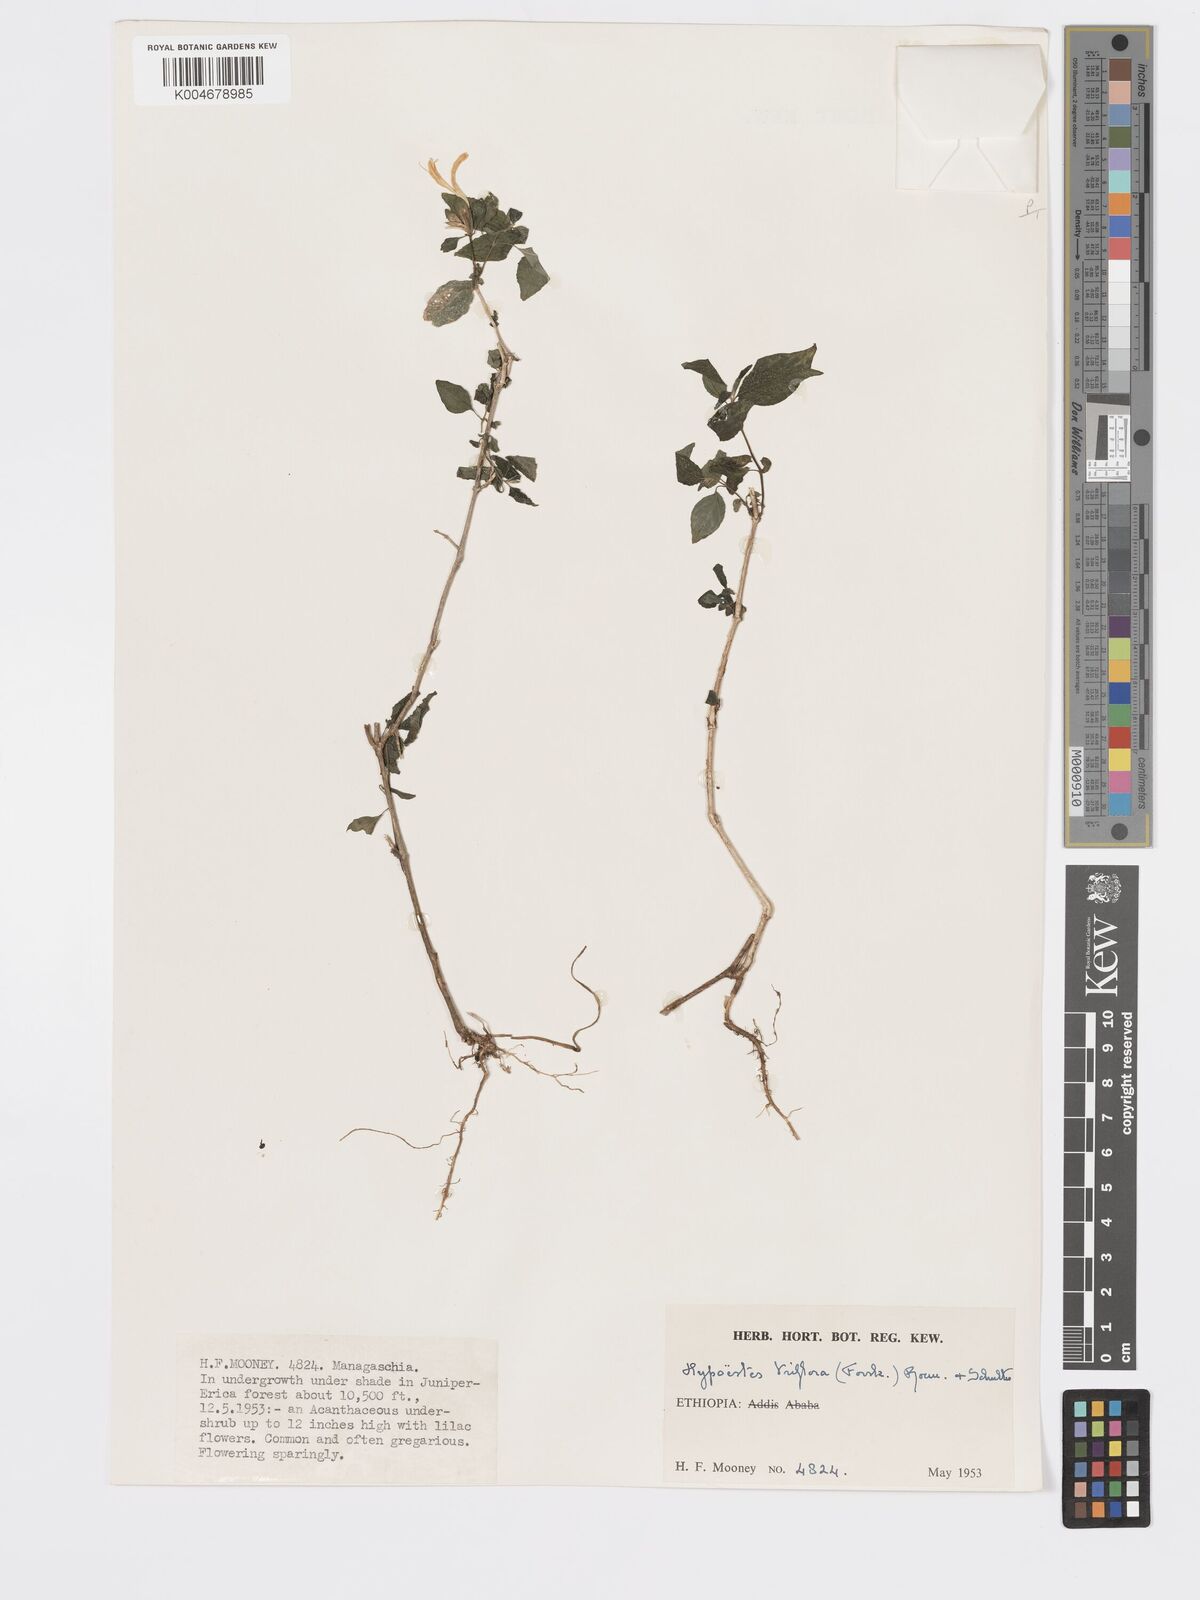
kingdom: Plantae
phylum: Tracheophyta
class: Magnoliopsida
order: Lamiales
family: Acanthaceae
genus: Hypoestes
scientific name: Hypoestes triflora
